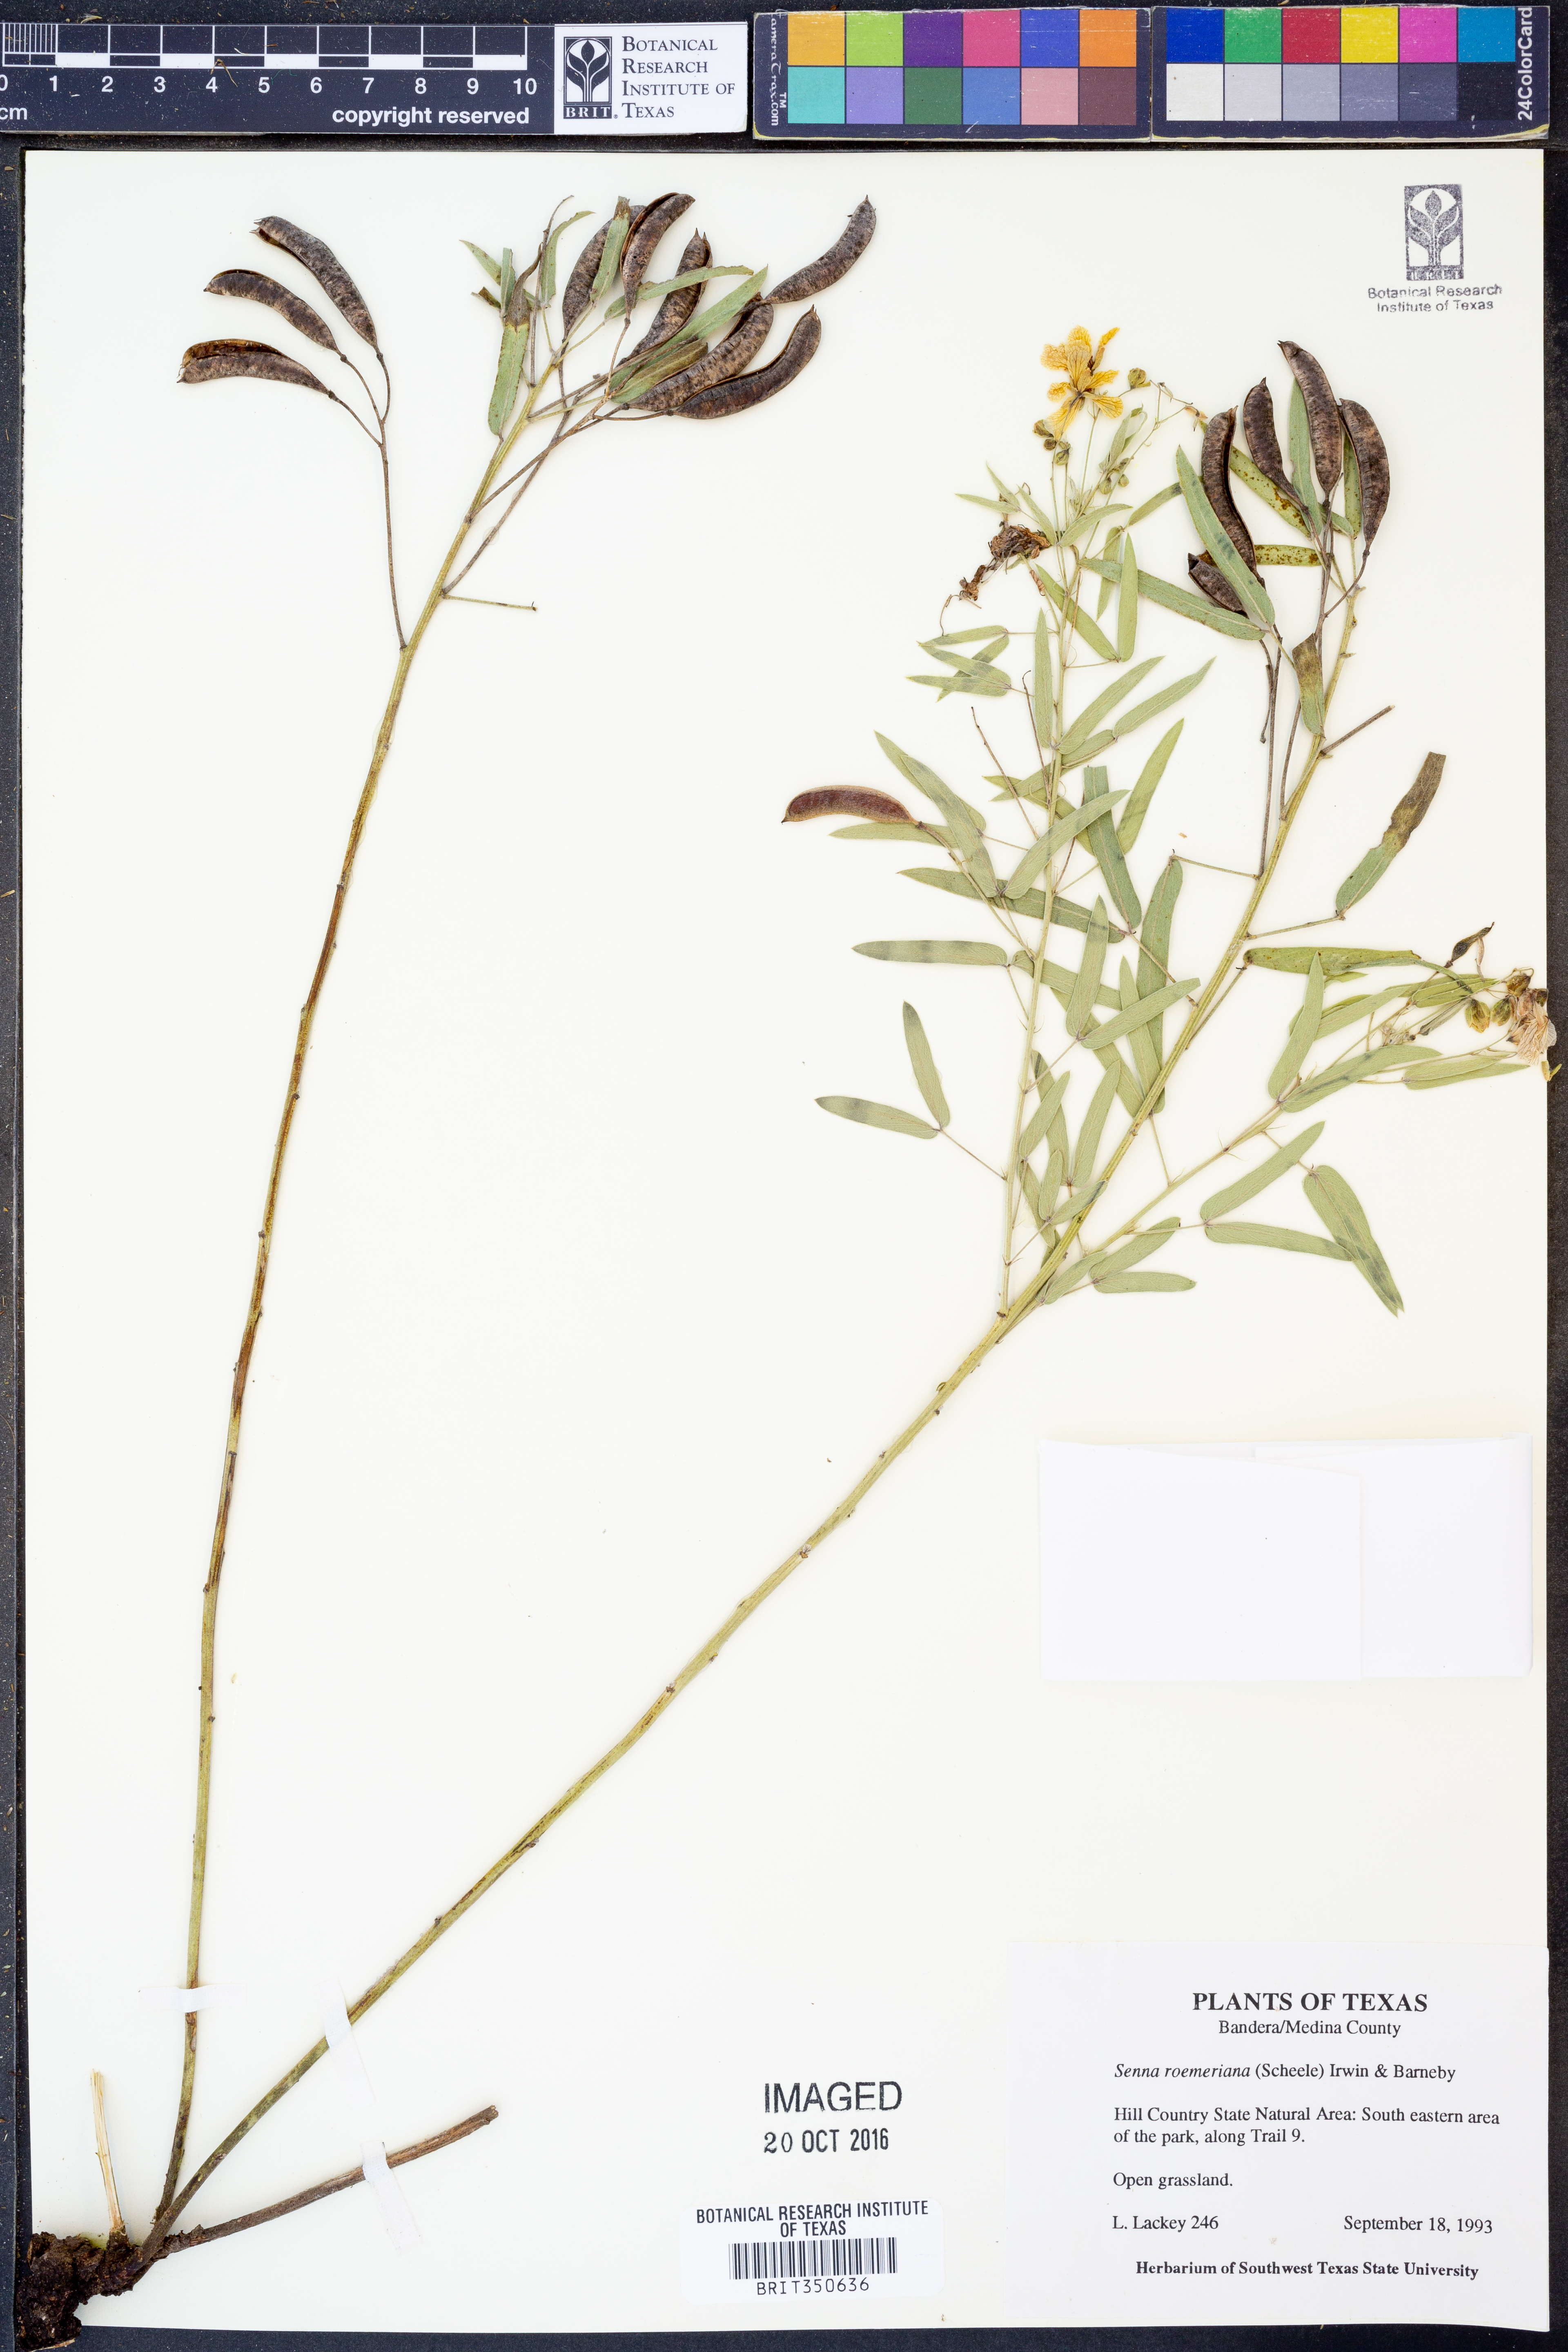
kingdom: Plantae
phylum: Tracheophyta
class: Magnoliopsida
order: Fabales
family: Fabaceae
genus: Senna
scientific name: Senna roemeriana
